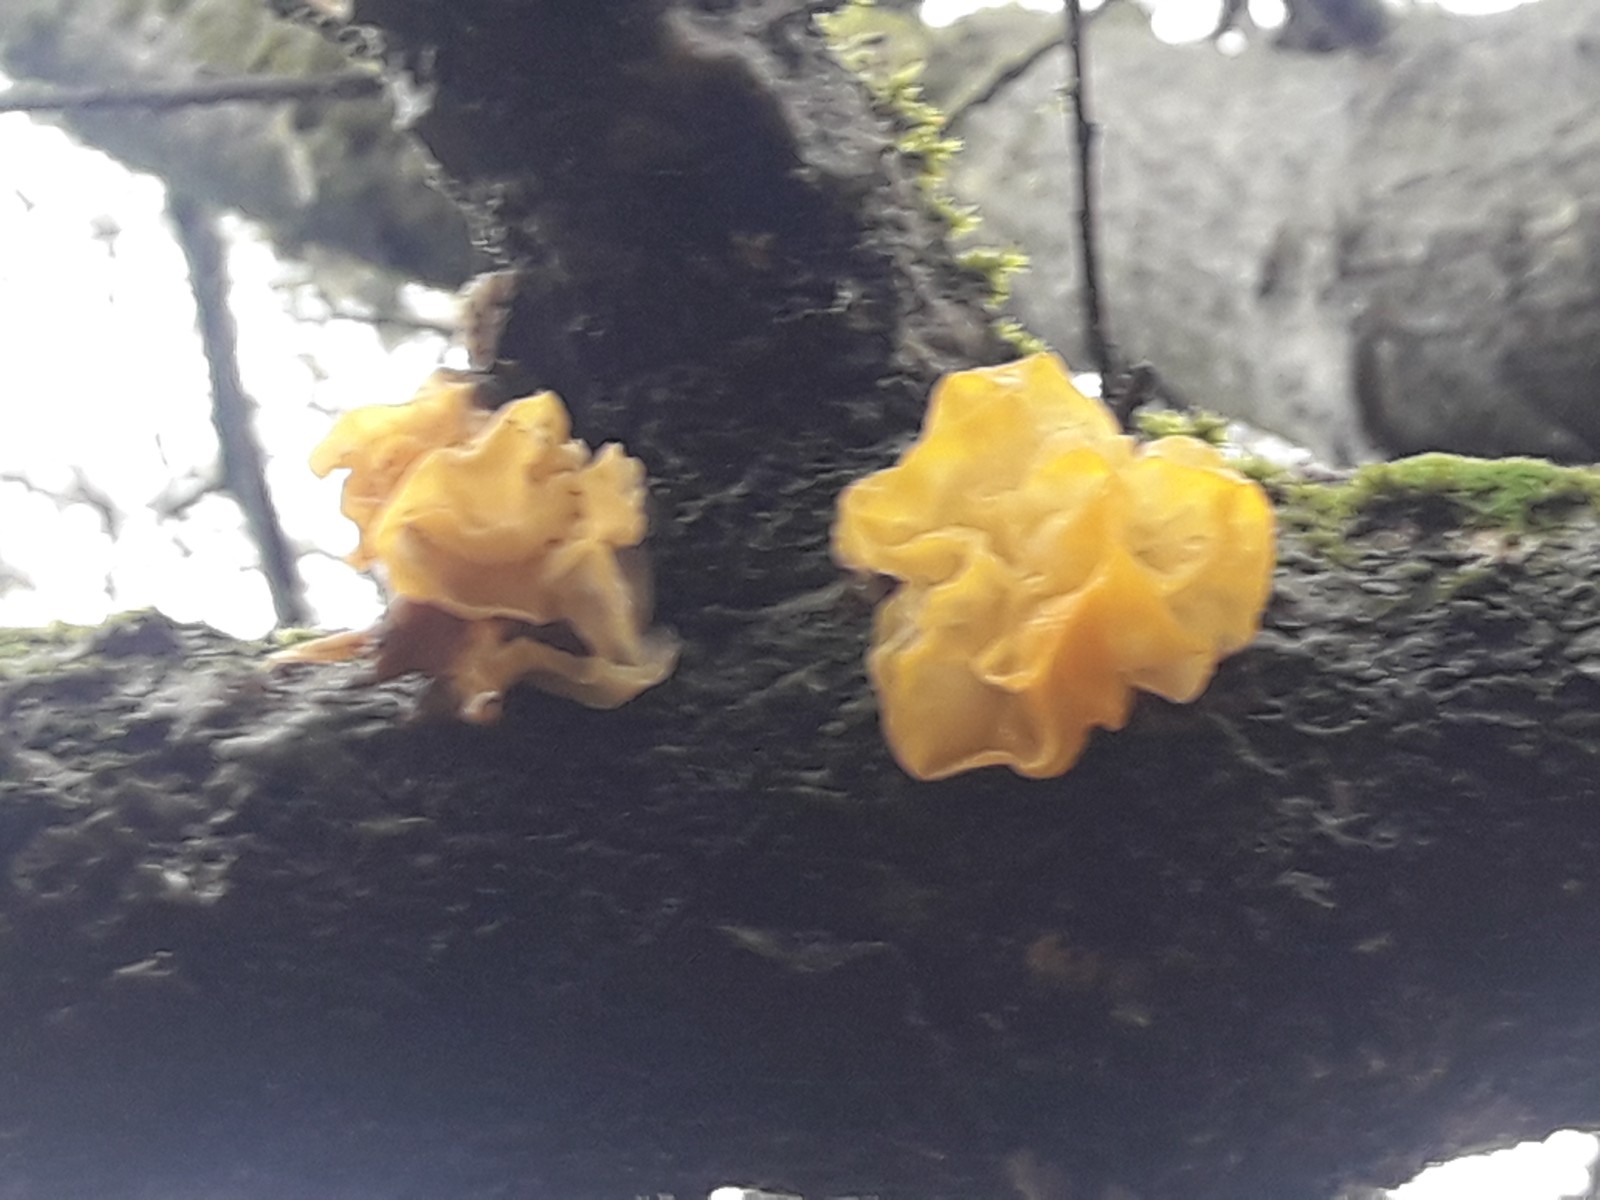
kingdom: Fungi
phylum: Basidiomycota
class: Tremellomycetes
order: Tremellales
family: Tremellaceae
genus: Tremella
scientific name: Tremella mesenterica
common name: gul bævresvamp
